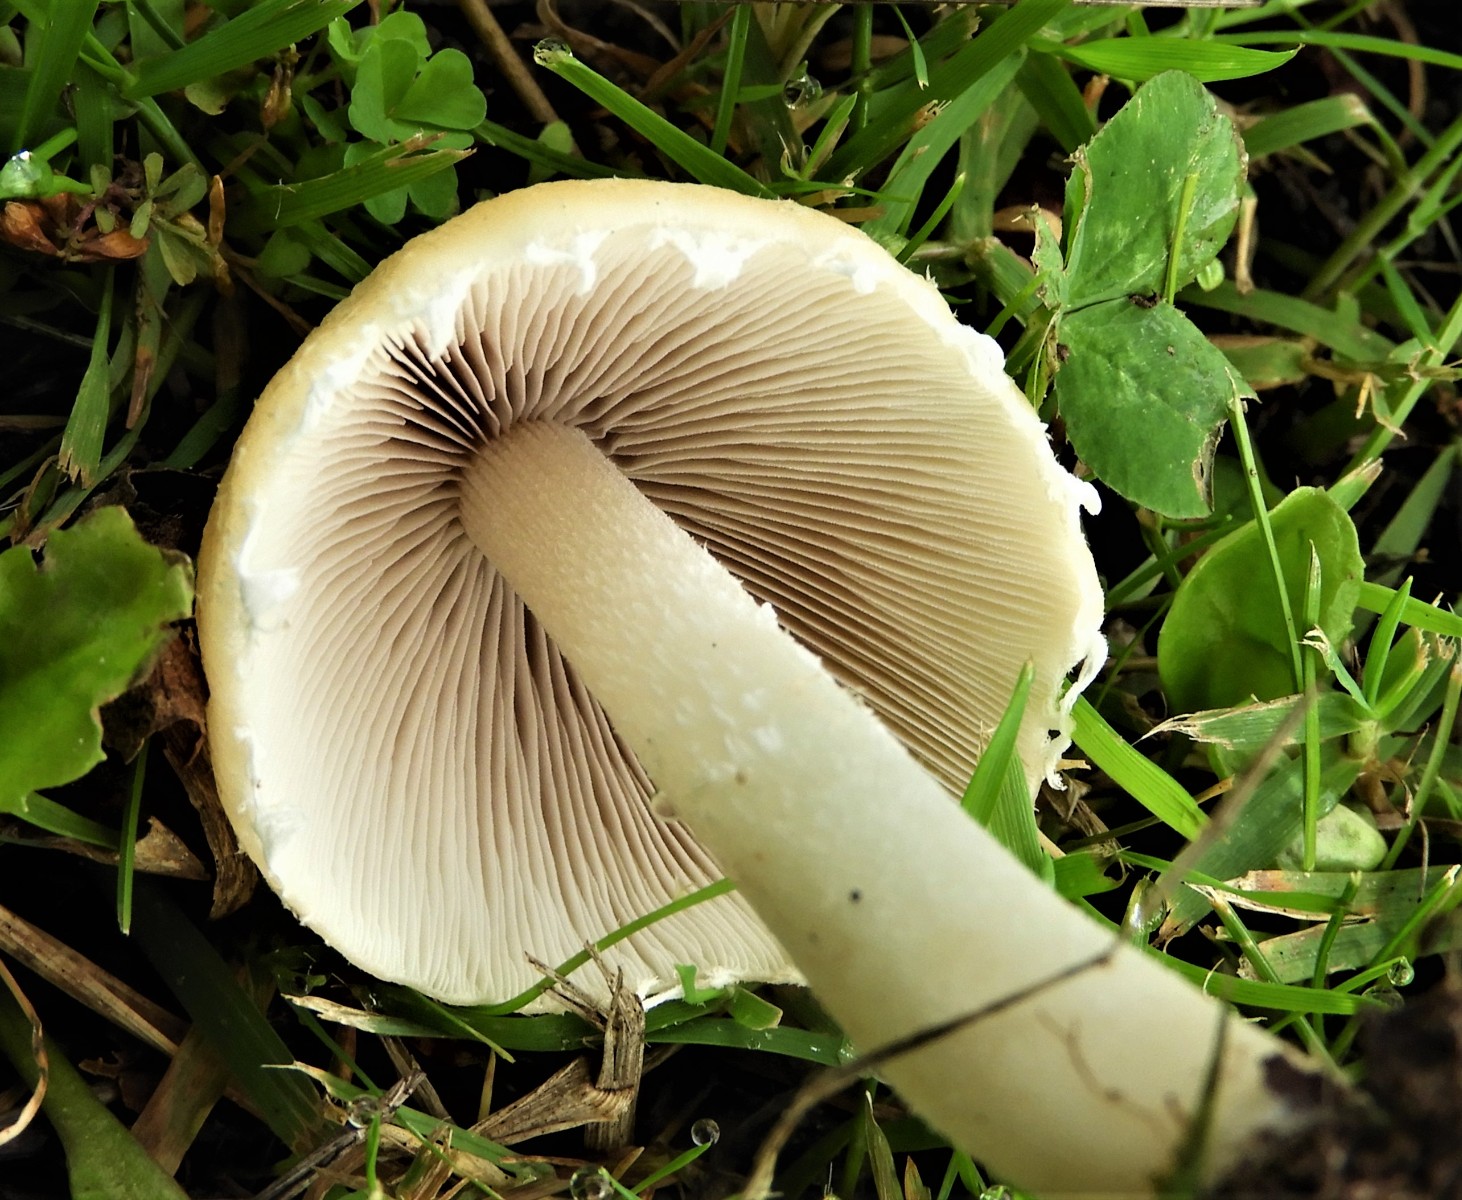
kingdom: Fungi
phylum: Basidiomycota
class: Agaricomycetes
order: Agaricales
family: Psathyrellaceae
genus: Candolleomyces
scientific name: Candolleomyces candolleanus
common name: Candolles mørkhat
